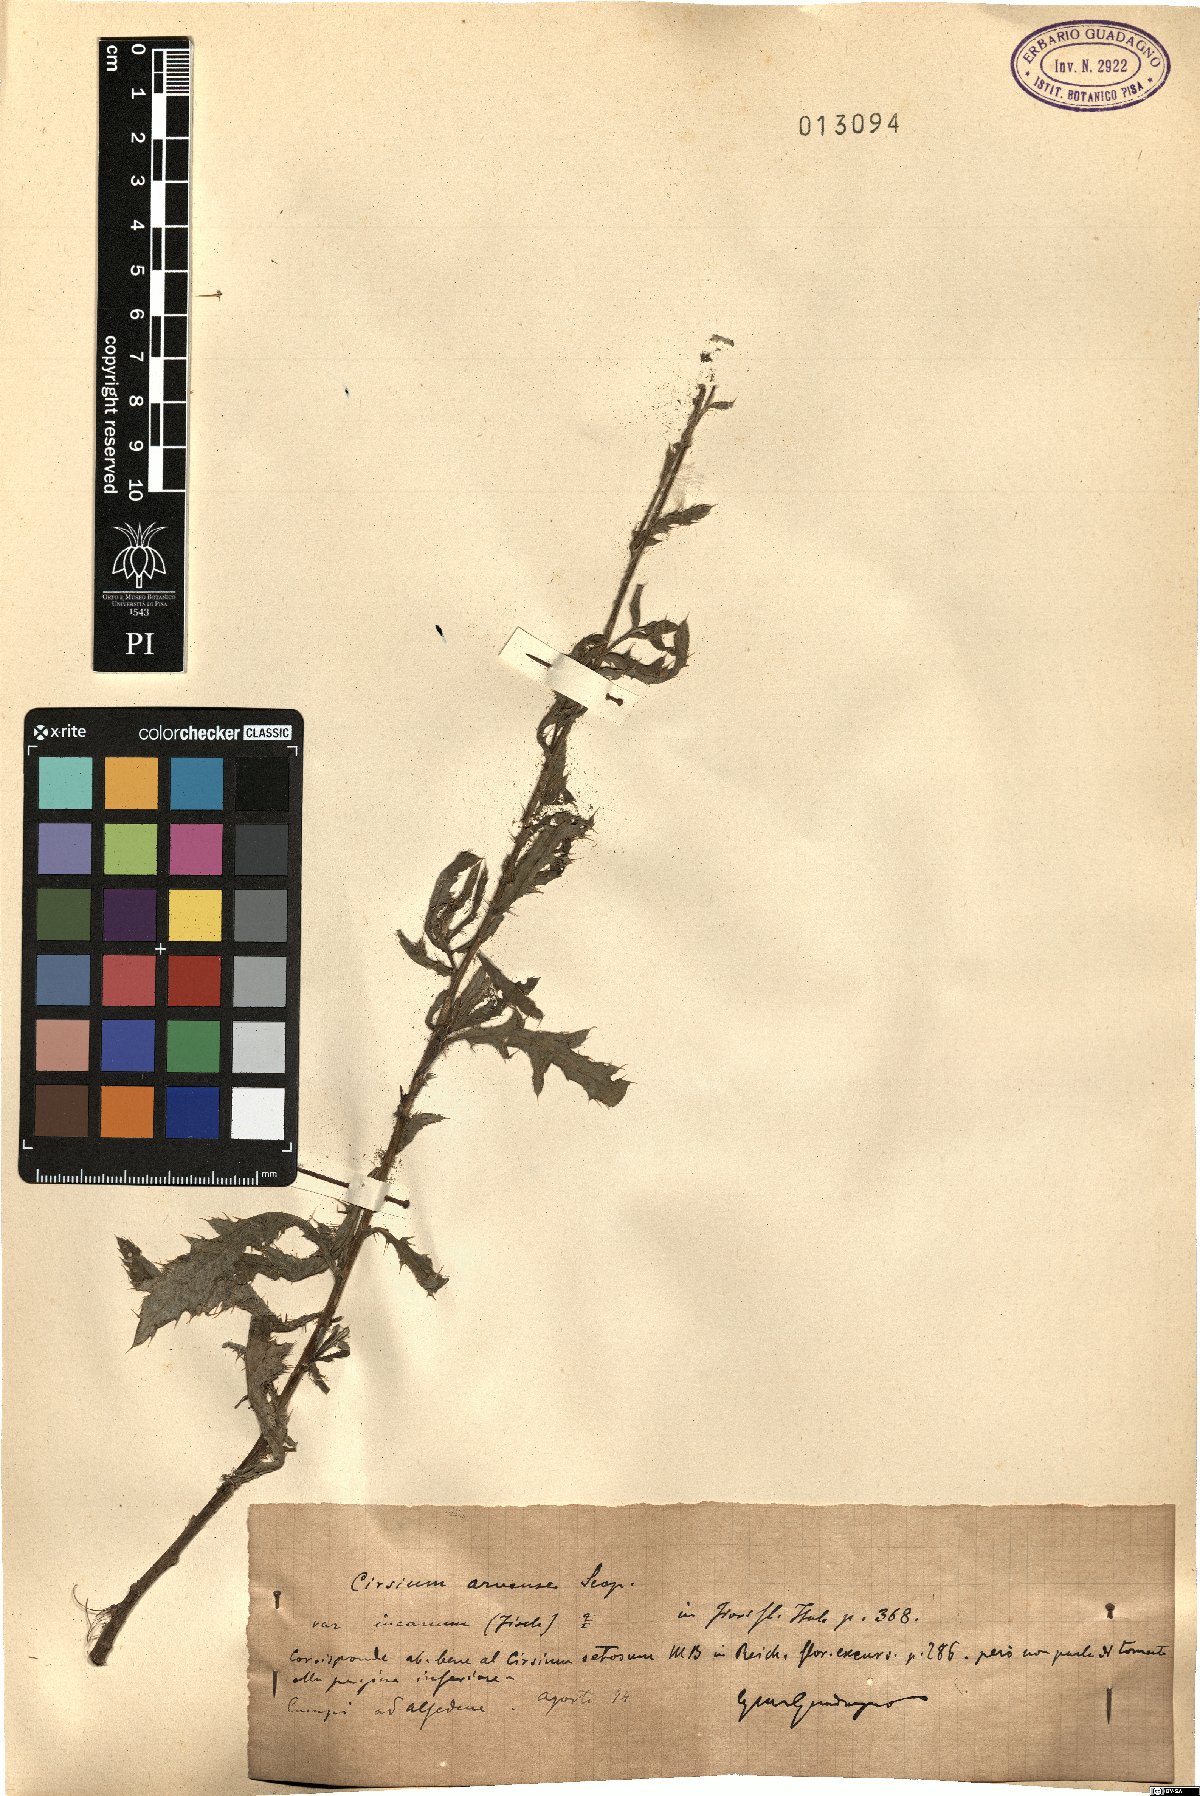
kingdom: Plantae
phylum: Tracheophyta
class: Magnoliopsida
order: Asterales
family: Asteraceae
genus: Cirsium
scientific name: Cirsium arvense
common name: Creeping thistle
